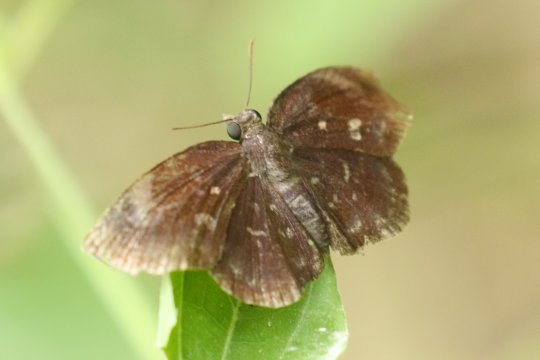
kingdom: Animalia
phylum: Arthropoda
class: Insecta
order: Lepidoptera
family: Hesperiidae
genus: Achlyodes
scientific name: Achlyodes thraso
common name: Sickle-winged Skipper
